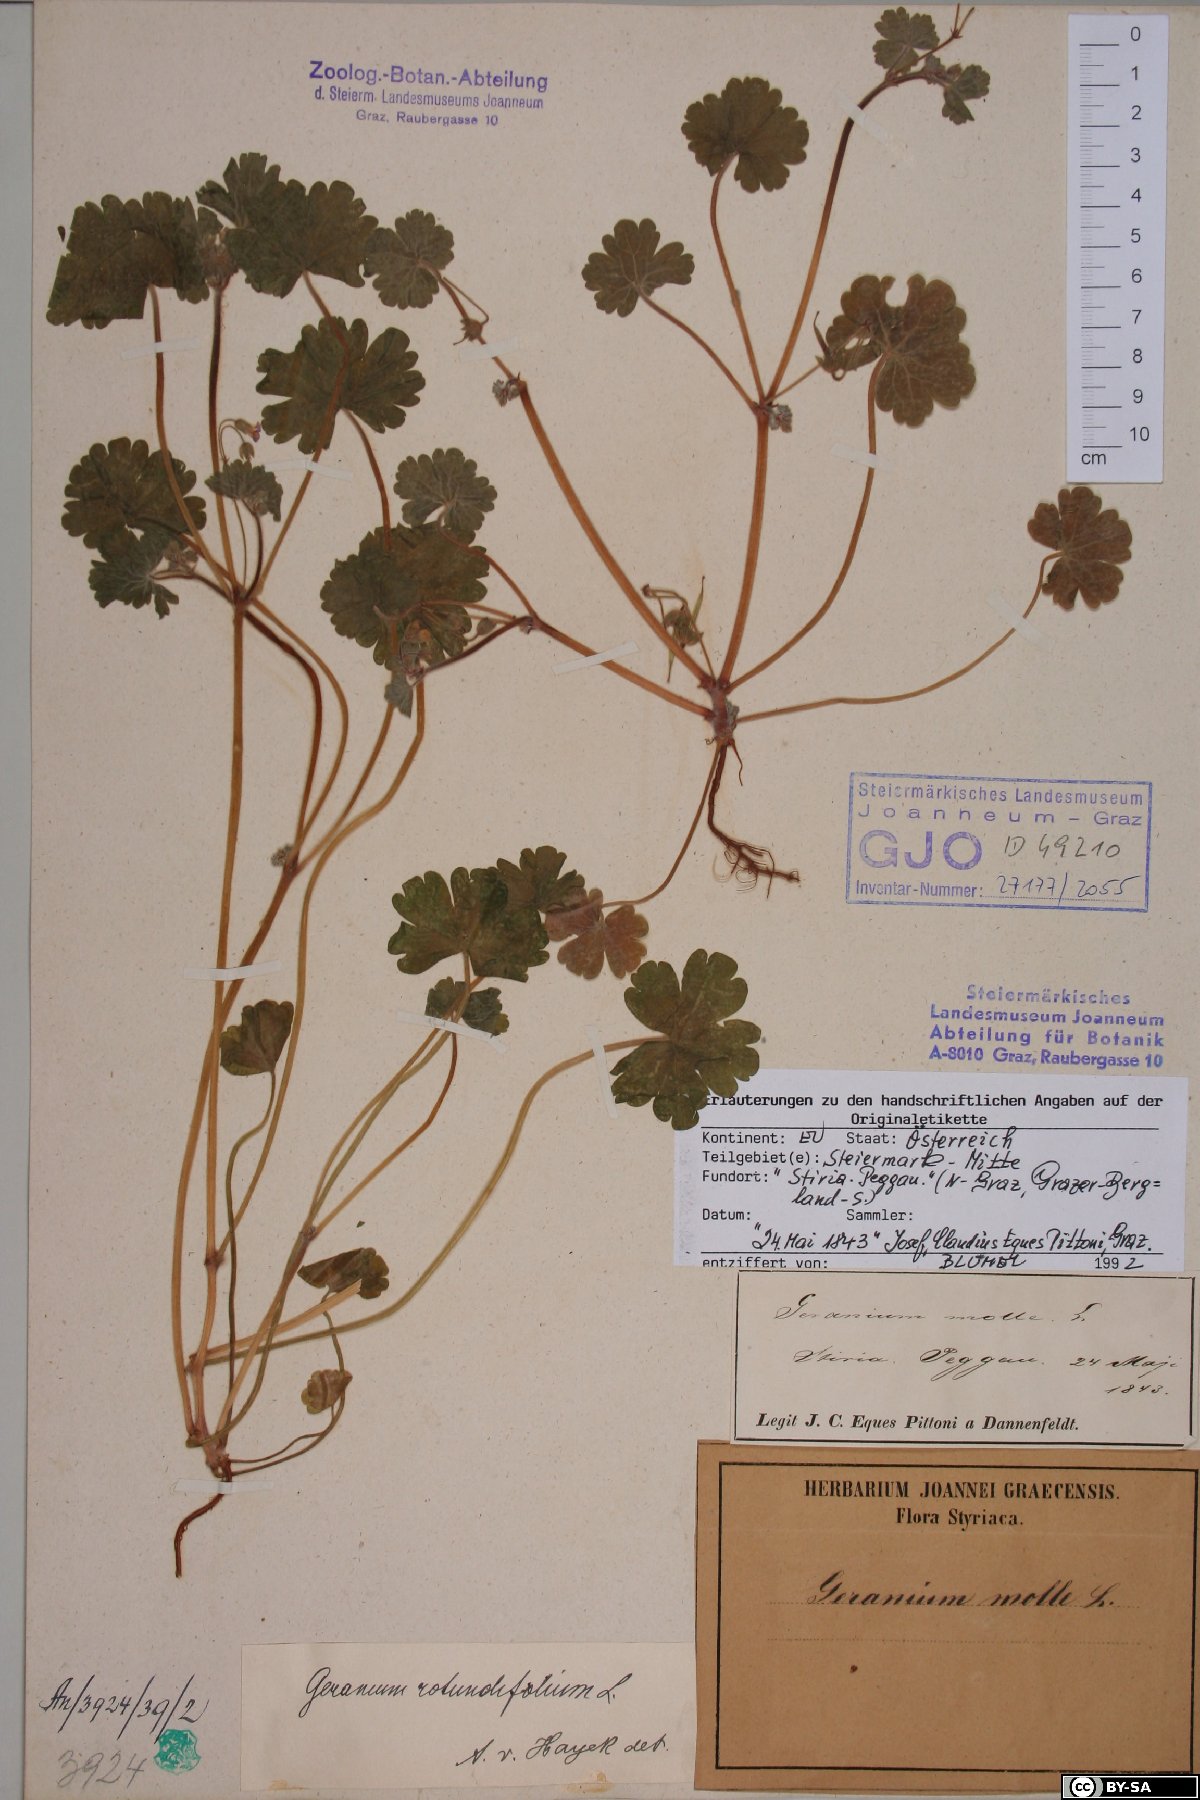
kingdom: Plantae
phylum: Tracheophyta
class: Magnoliopsida
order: Geraniales
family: Geraniaceae
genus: Geranium
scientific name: Geranium rotundifolium
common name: Round-leaved crane's-bill
